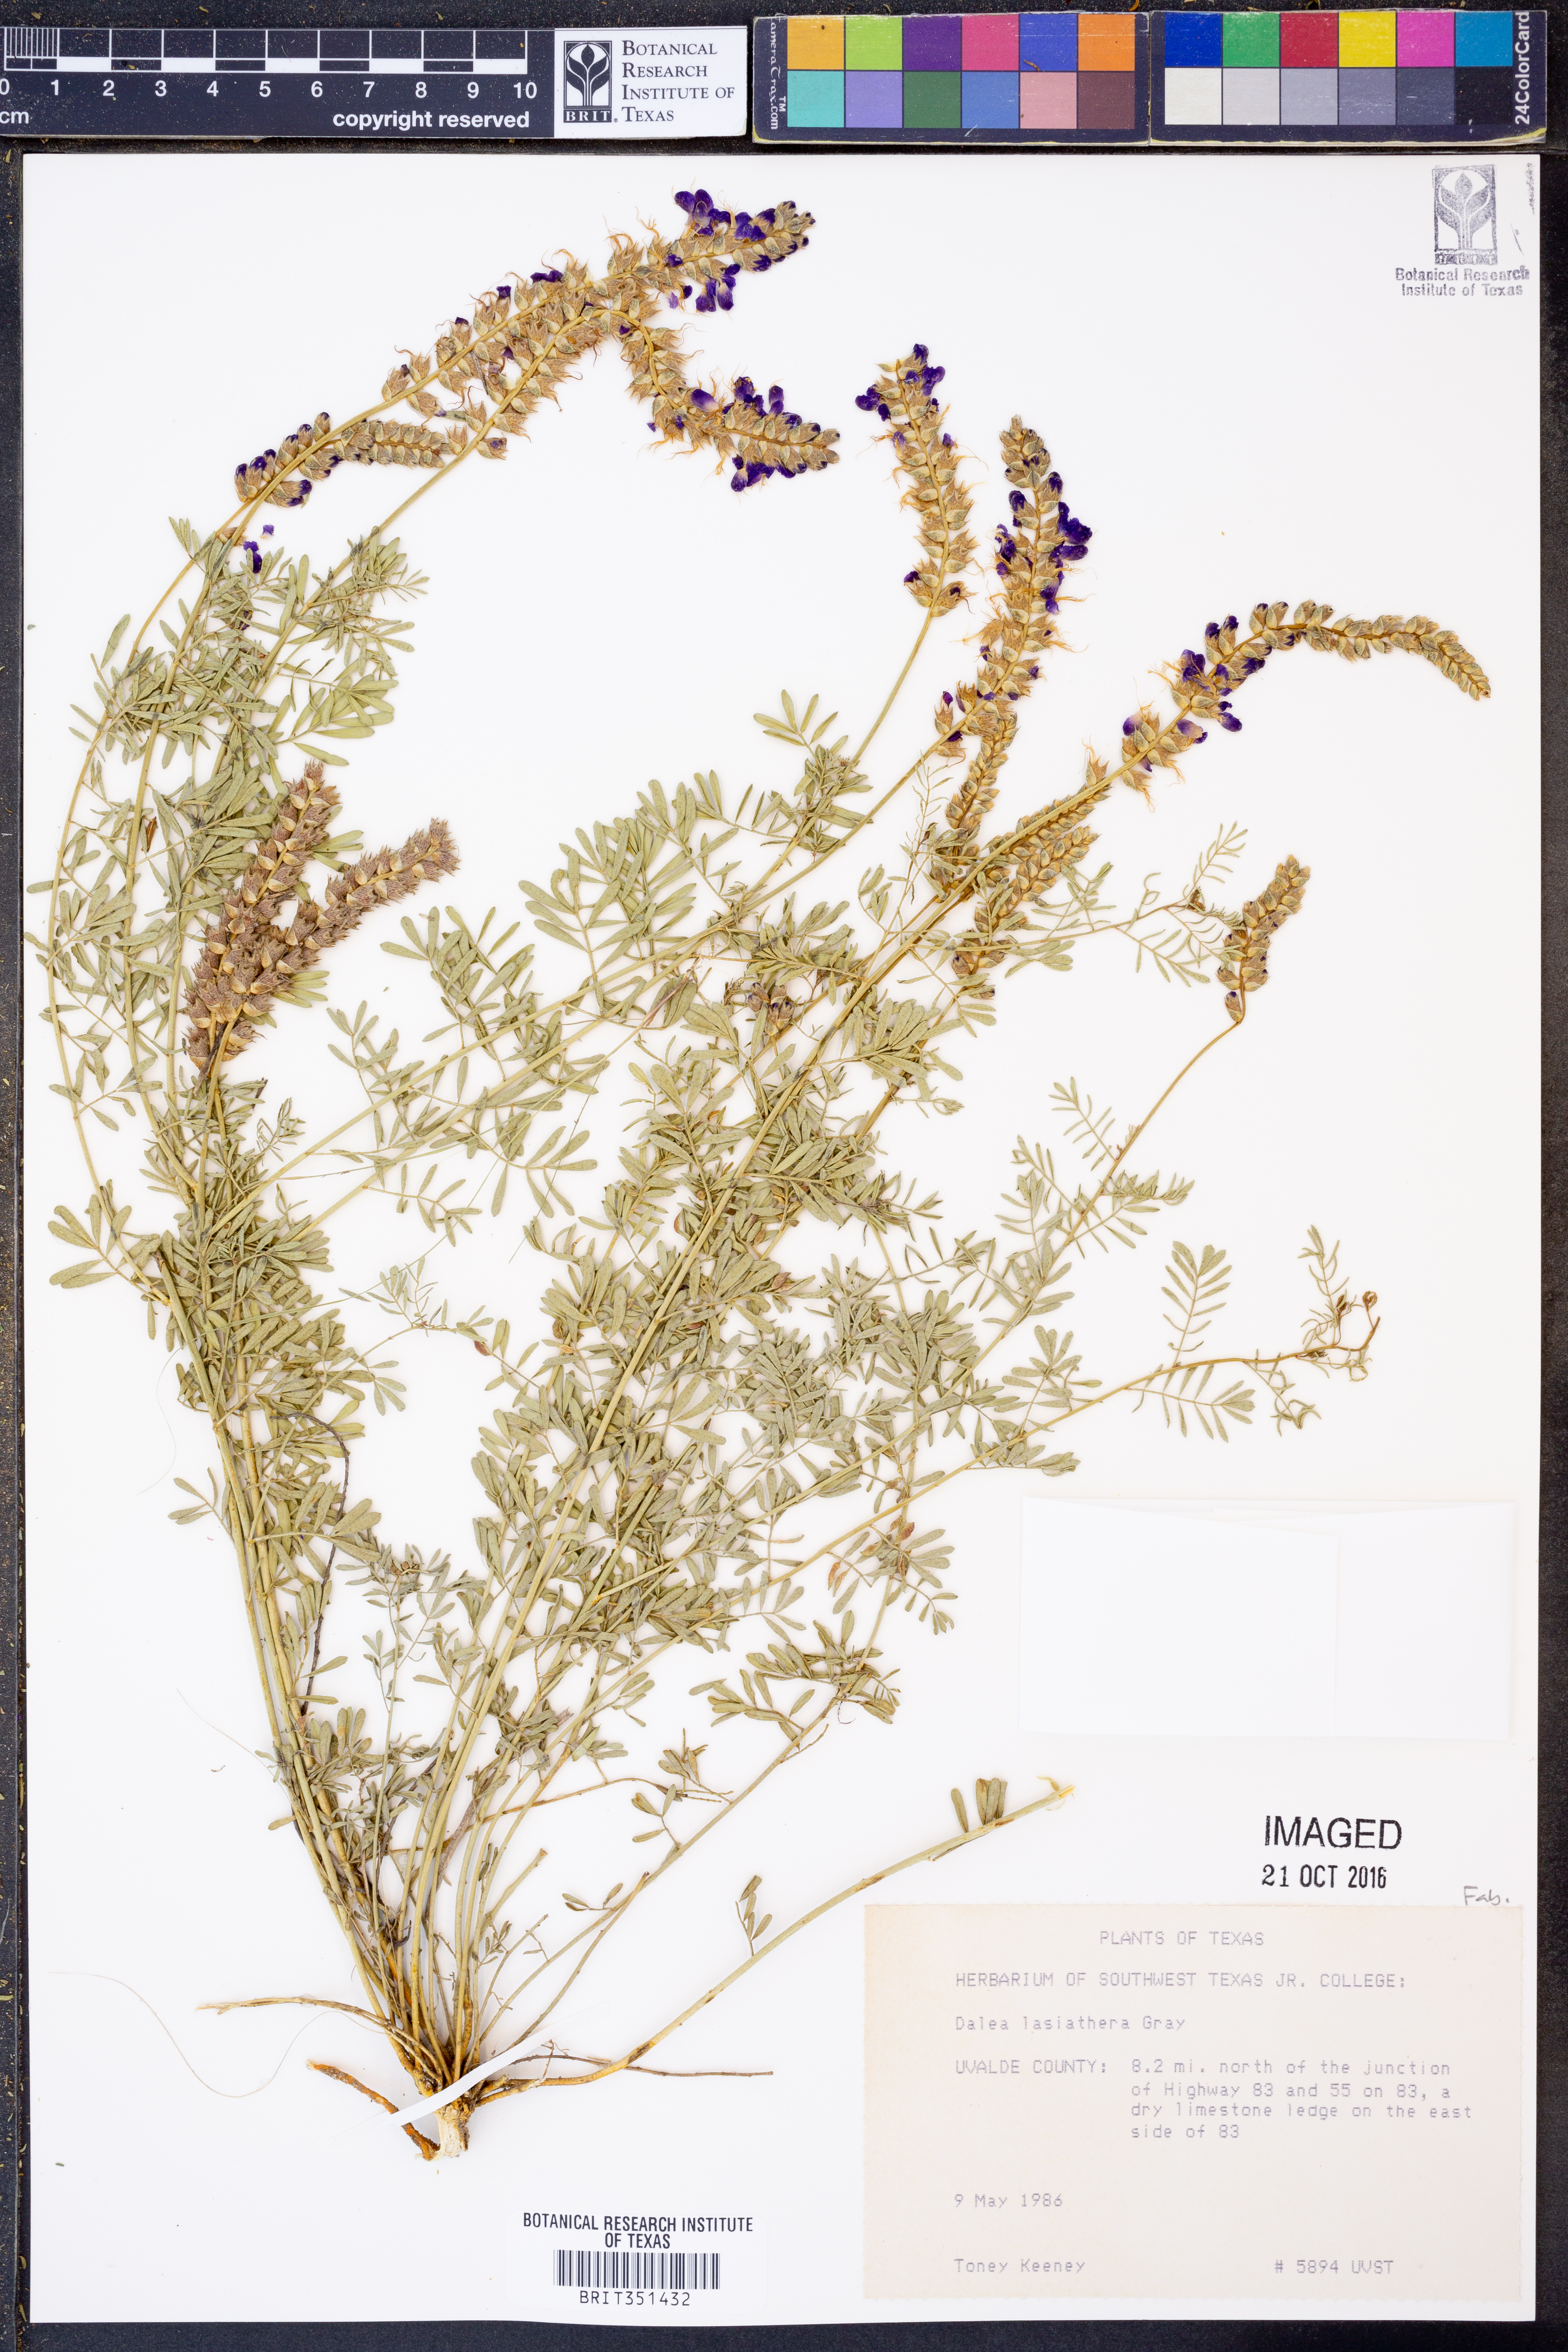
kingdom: Plantae
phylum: Tracheophyta
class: Magnoliopsida
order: Fabales
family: Fabaceae
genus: Dalea
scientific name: Dalea lasiathera
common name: Purple prairie-clover
